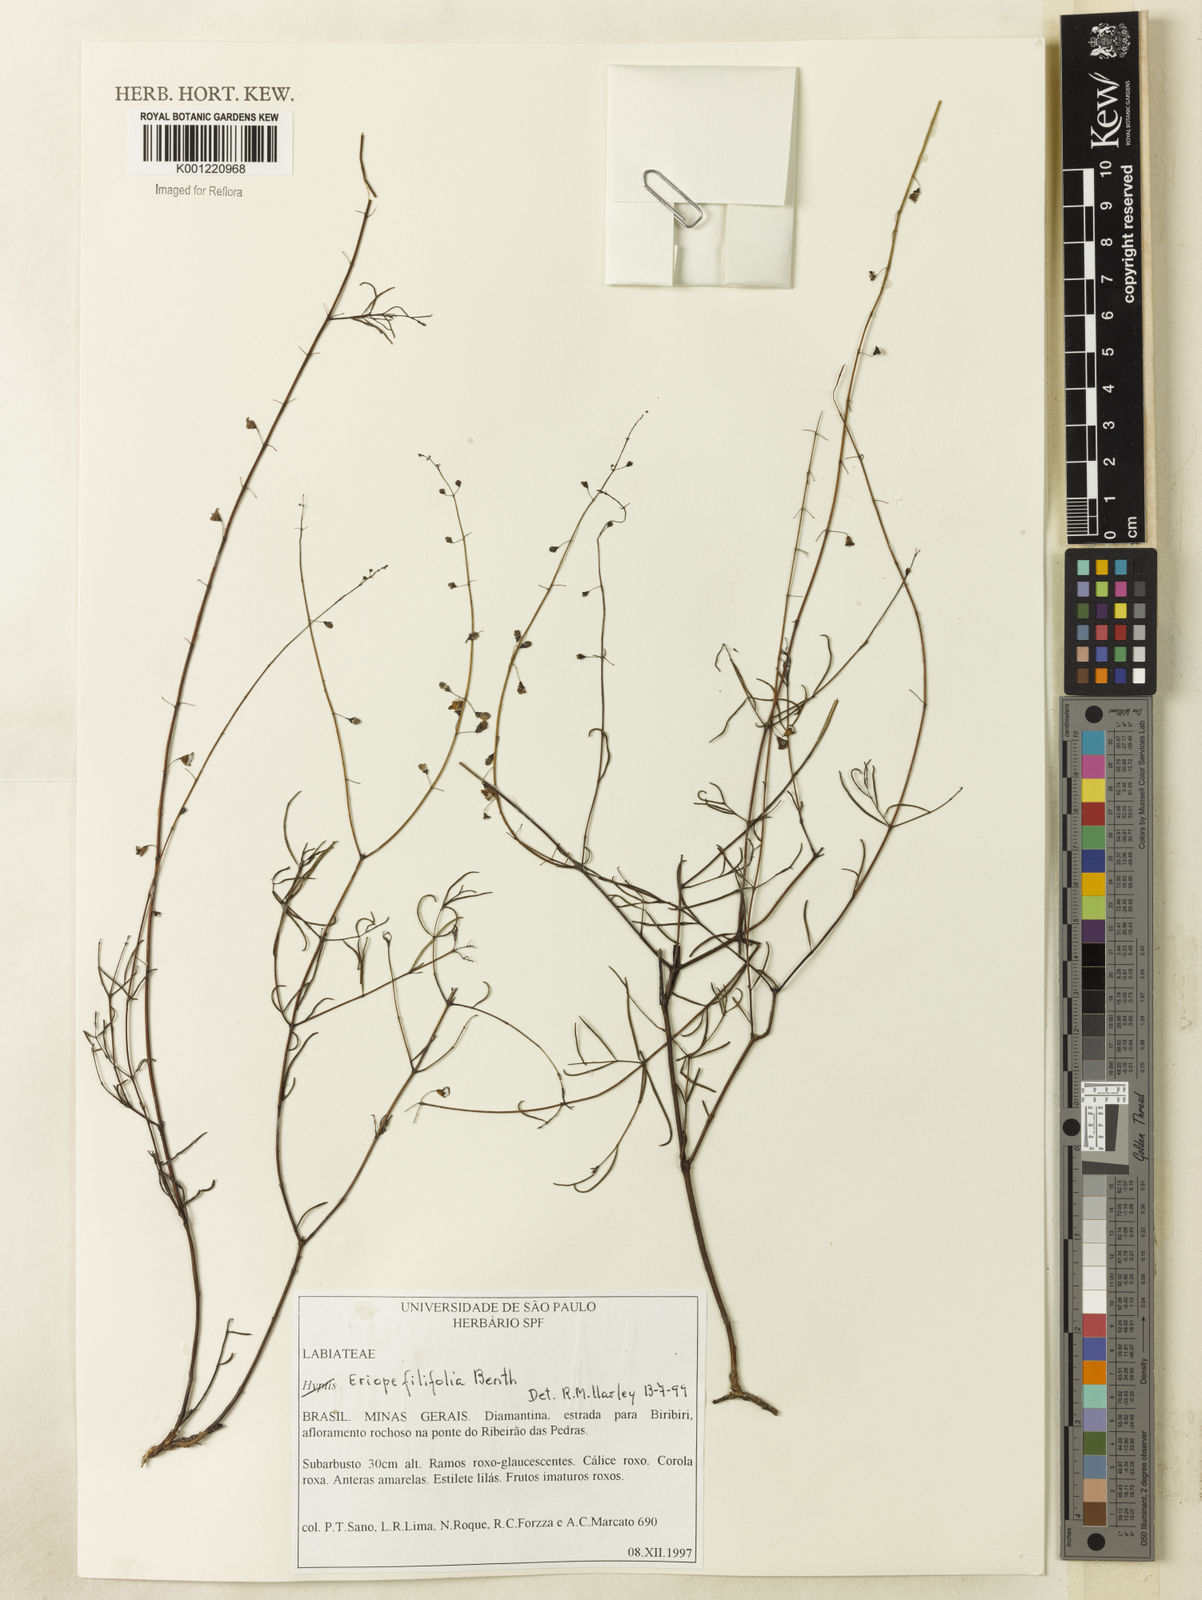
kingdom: Plantae
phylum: Tracheophyta
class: Magnoliopsida
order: Lamiales
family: Lamiaceae
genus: Eriope
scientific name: Eriope filifolia
